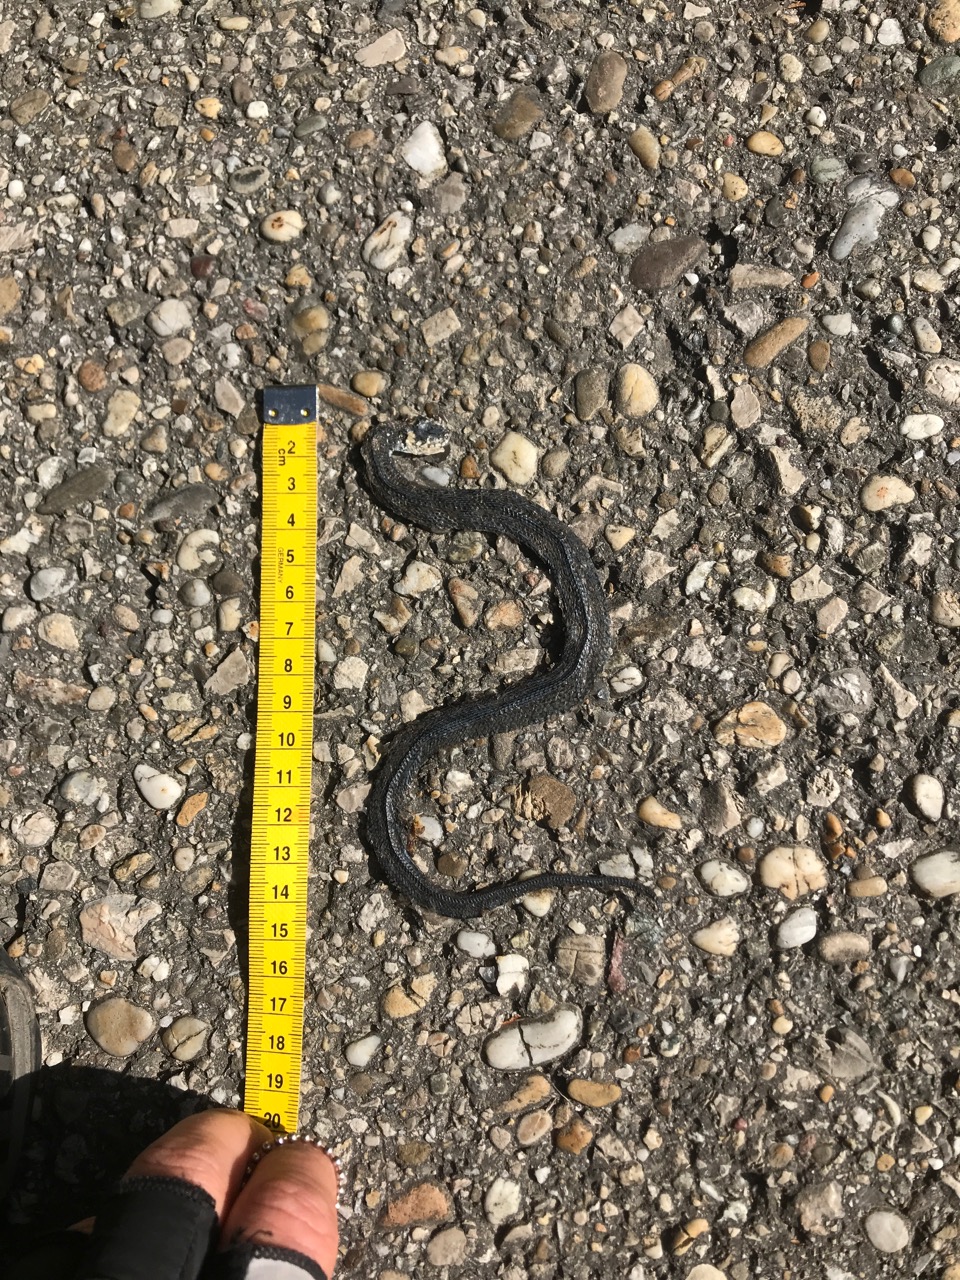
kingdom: Animalia
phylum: Chordata
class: Squamata
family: Colubridae
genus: Natrix
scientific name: Natrix natrix
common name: Grass snake
